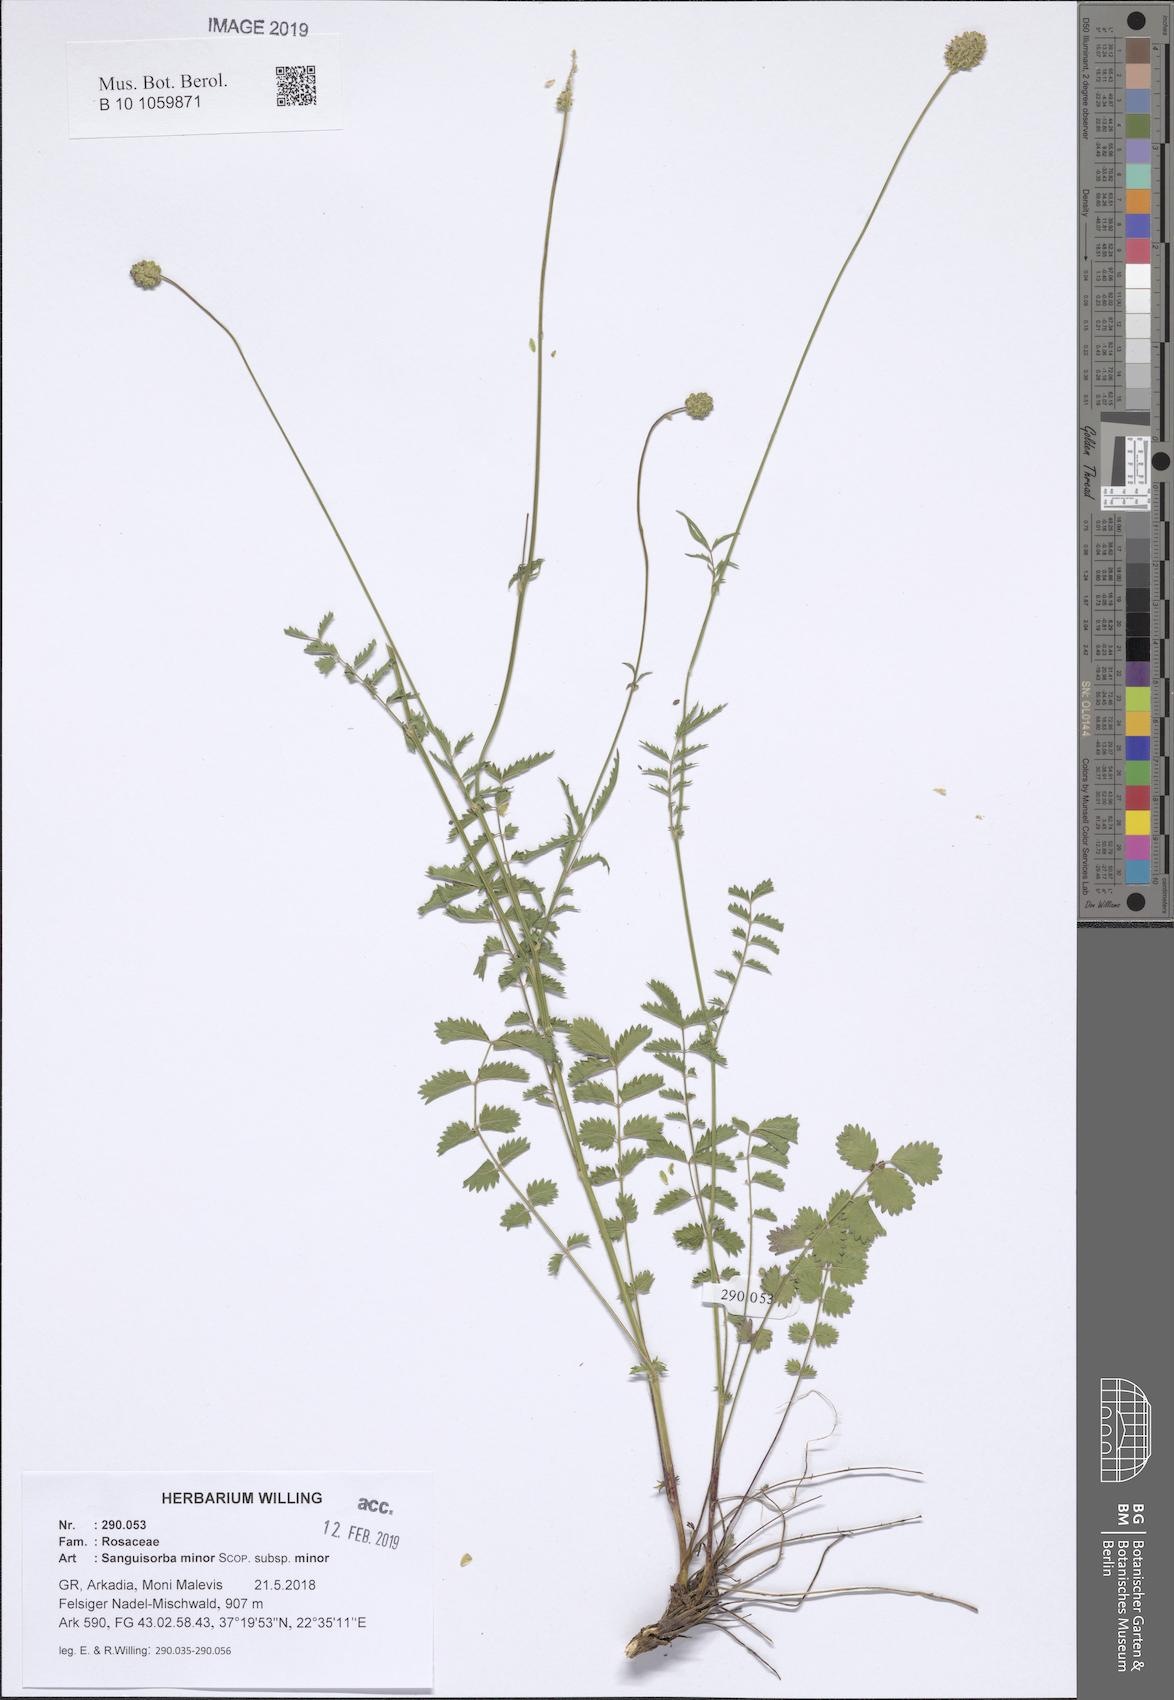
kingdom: Plantae
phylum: Tracheophyta
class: Magnoliopsida
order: Rosales
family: Rosaceae
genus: Poterium
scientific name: Poterium sanguisorba
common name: Salad burnet
